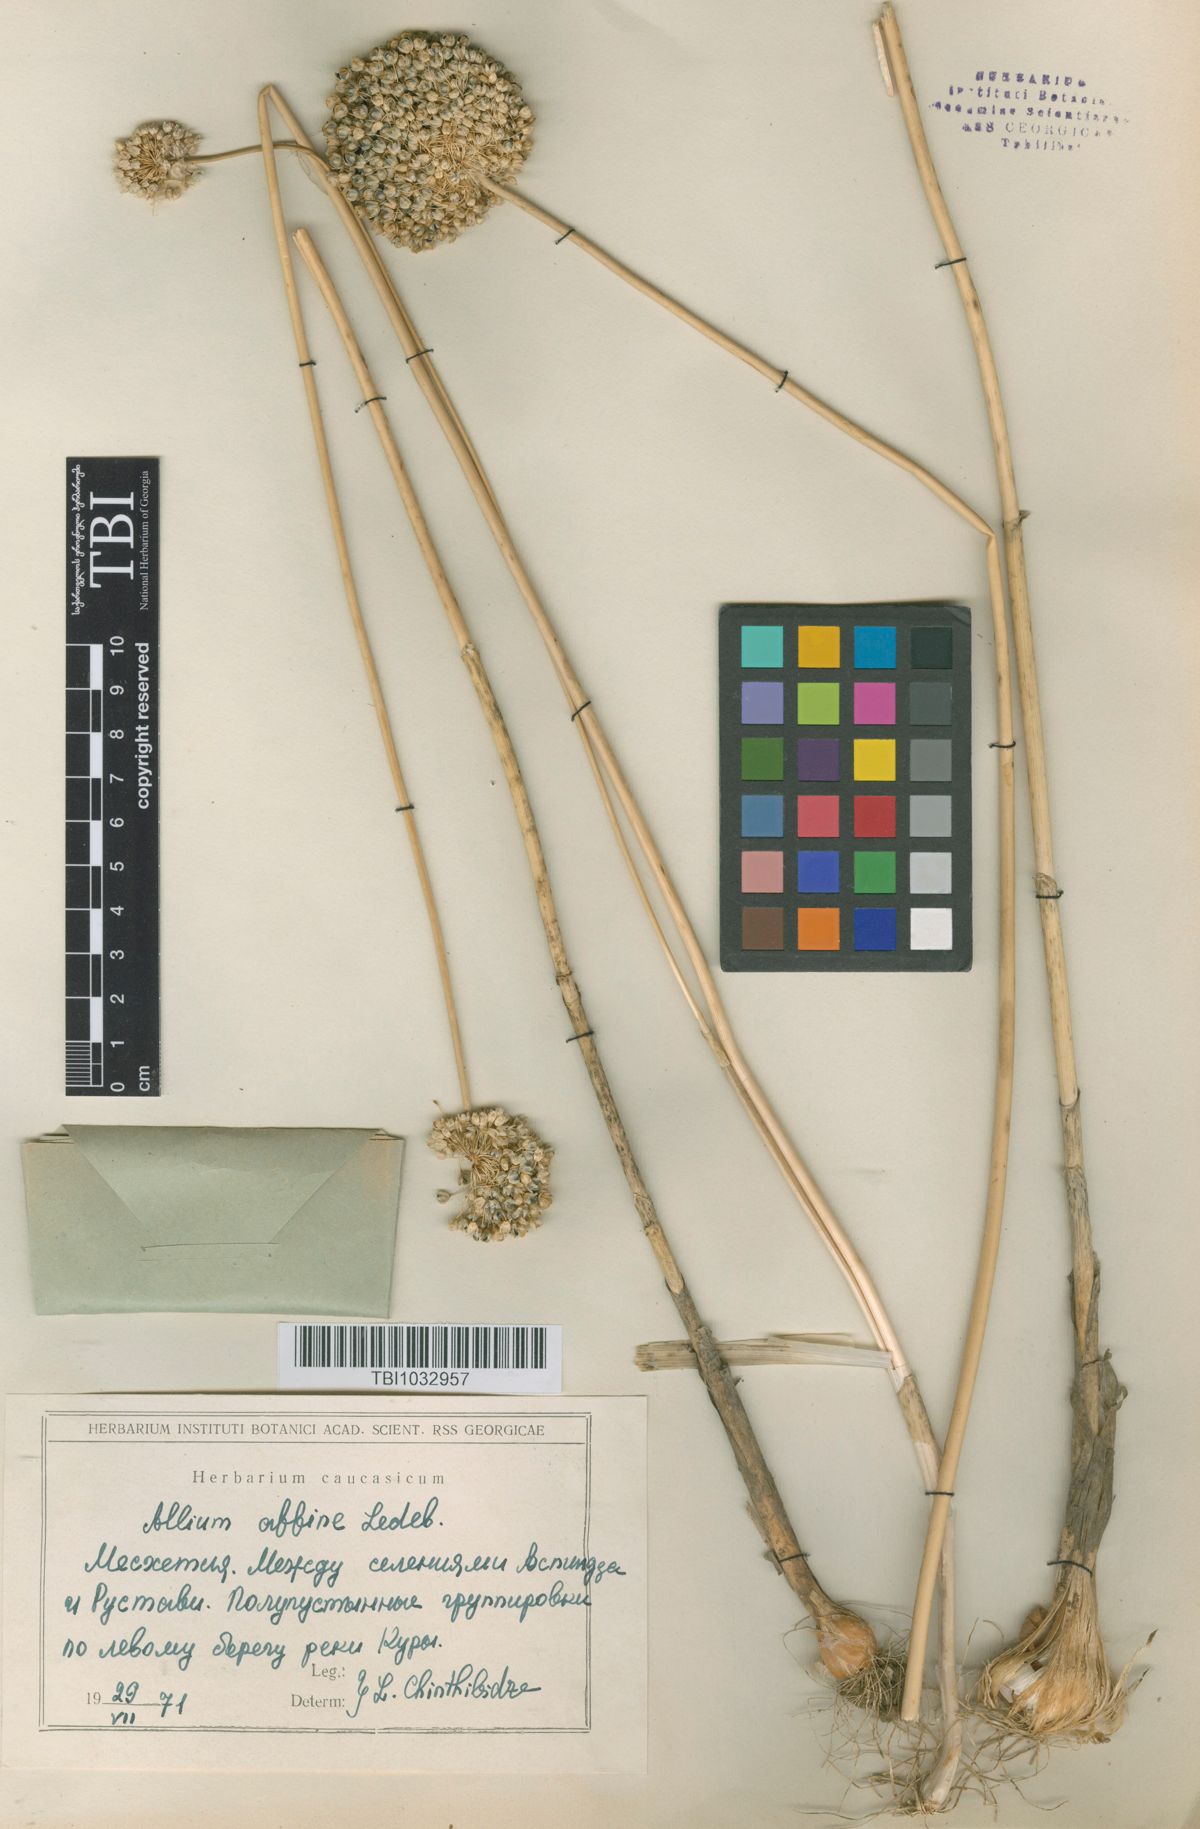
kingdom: Plantae
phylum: Tracheophyta
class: Liliopsida
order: Asparagales
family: Amaryllidaceae
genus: Allium
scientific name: Allium affine
